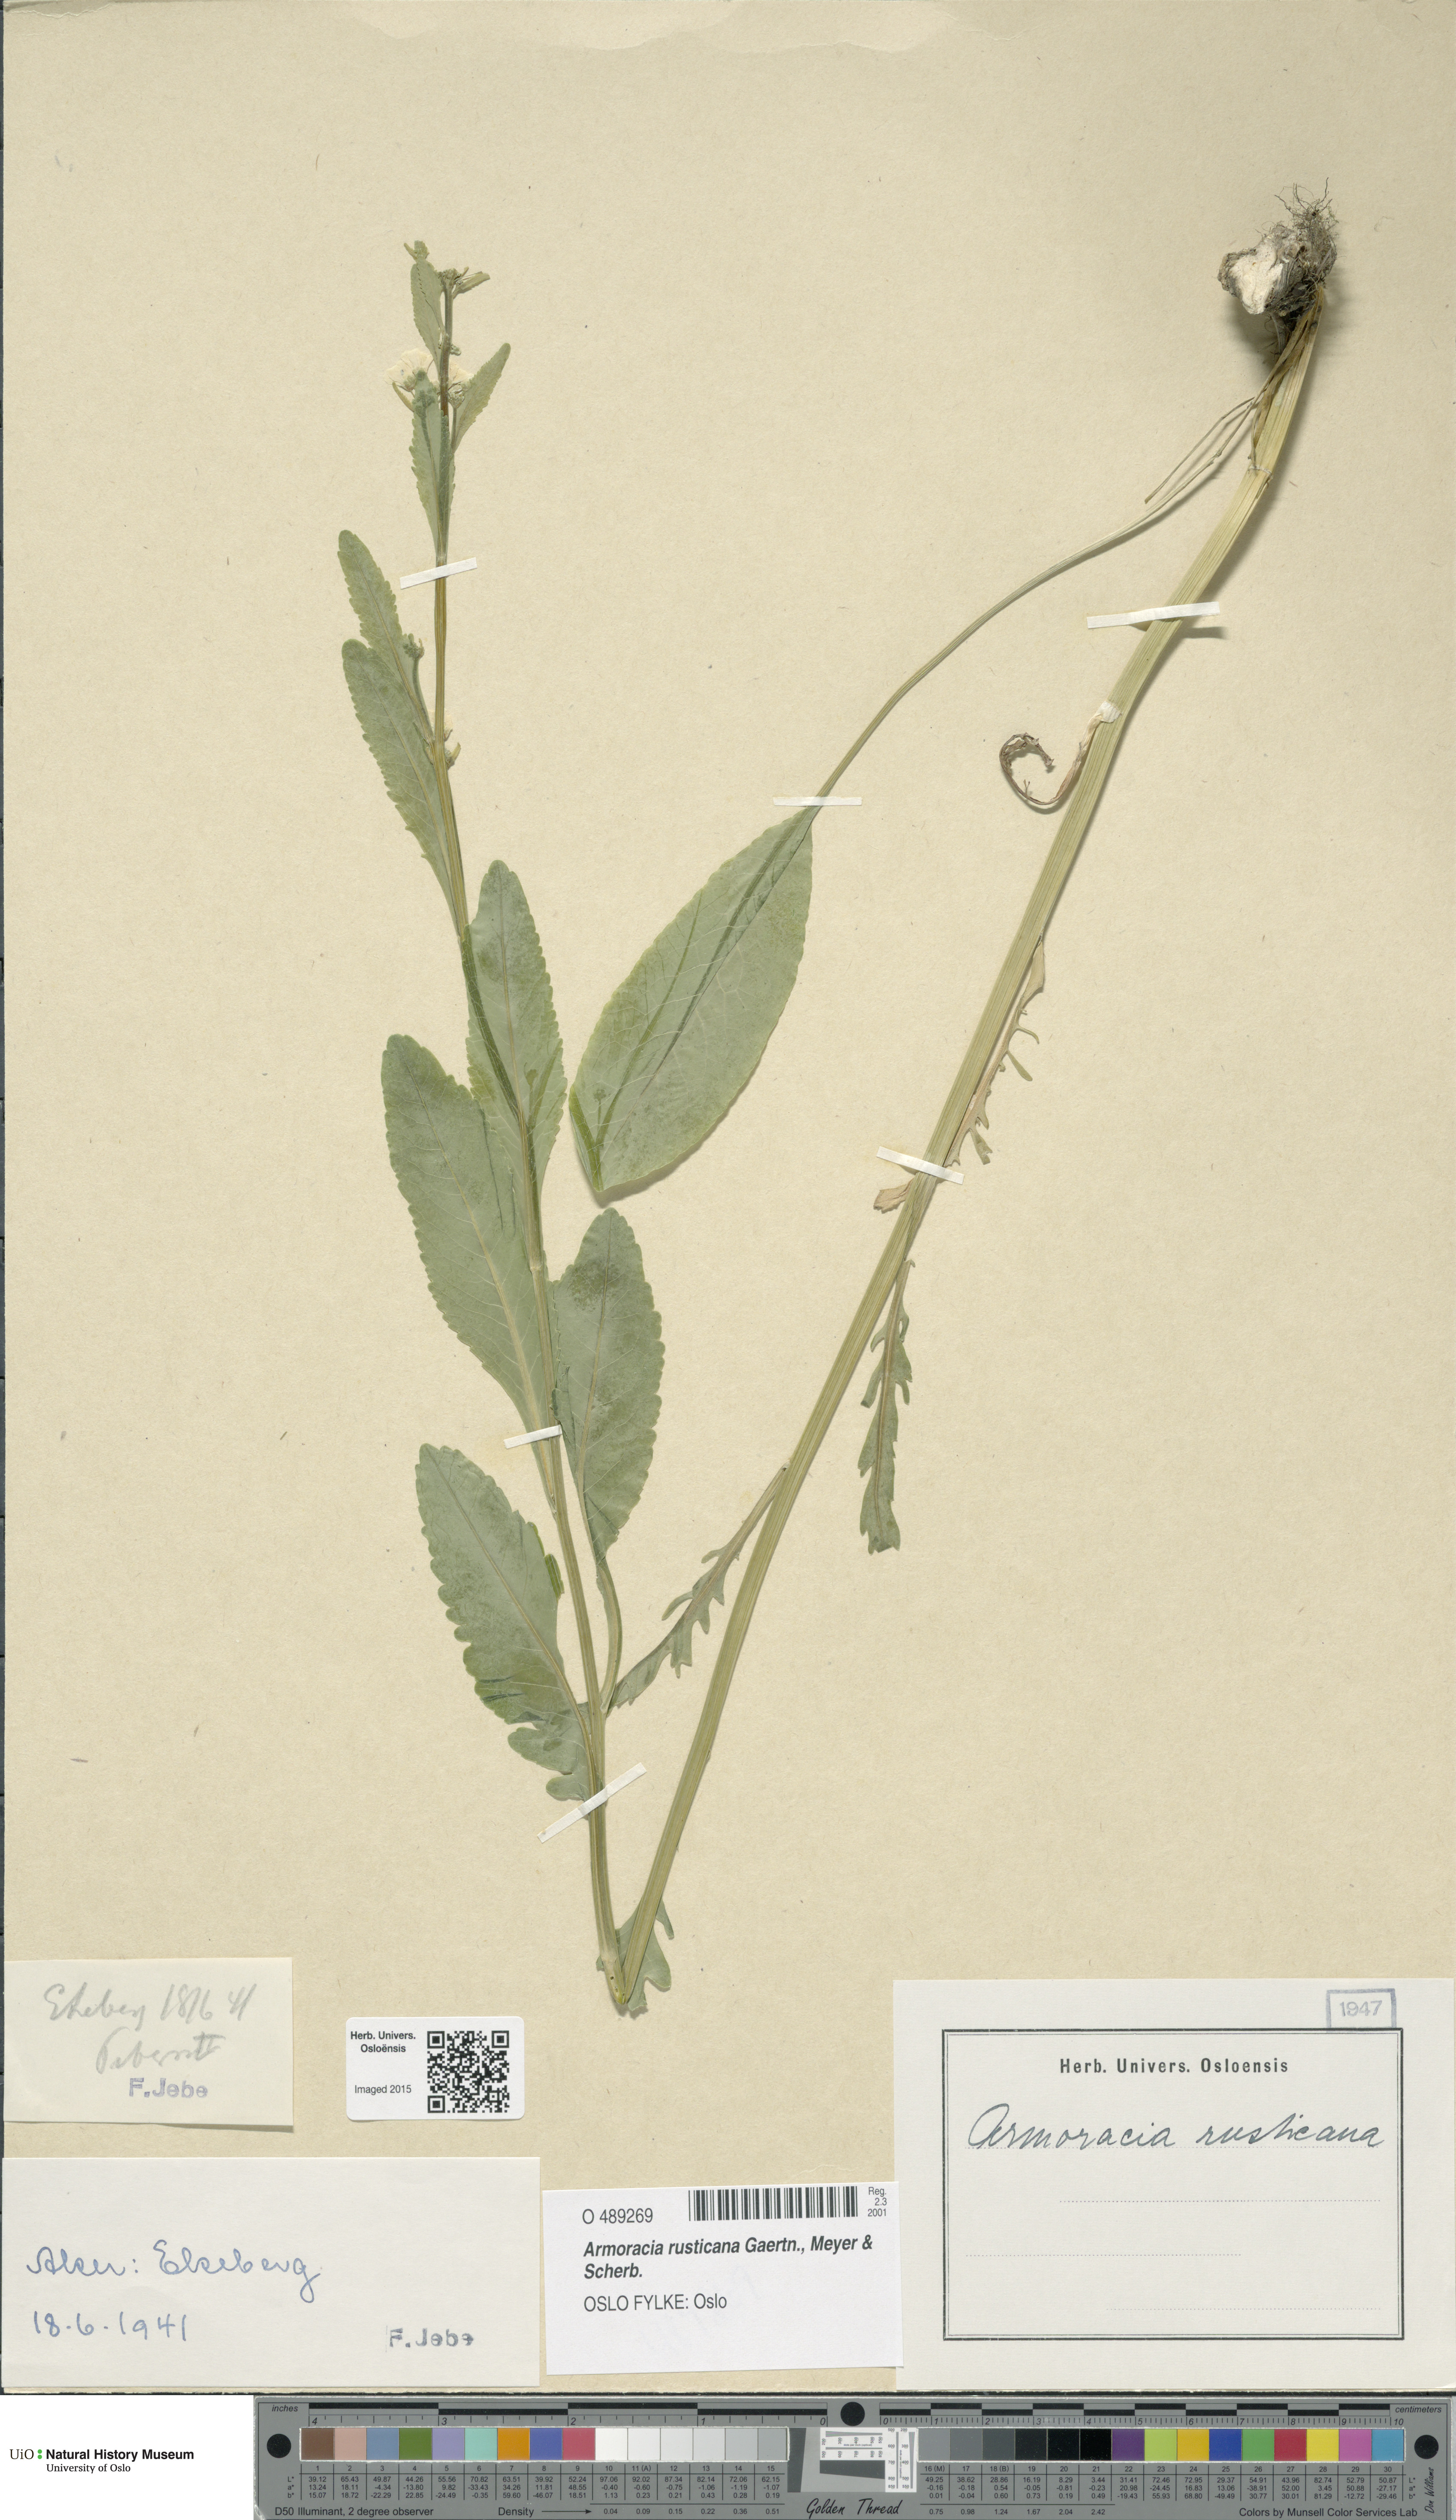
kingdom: Plantae
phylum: Tracheophyta
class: Magnoliopsida
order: Brassicales
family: Brassicaceae
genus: Armoracia
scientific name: Armoracia rusticana
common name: Horseradish
